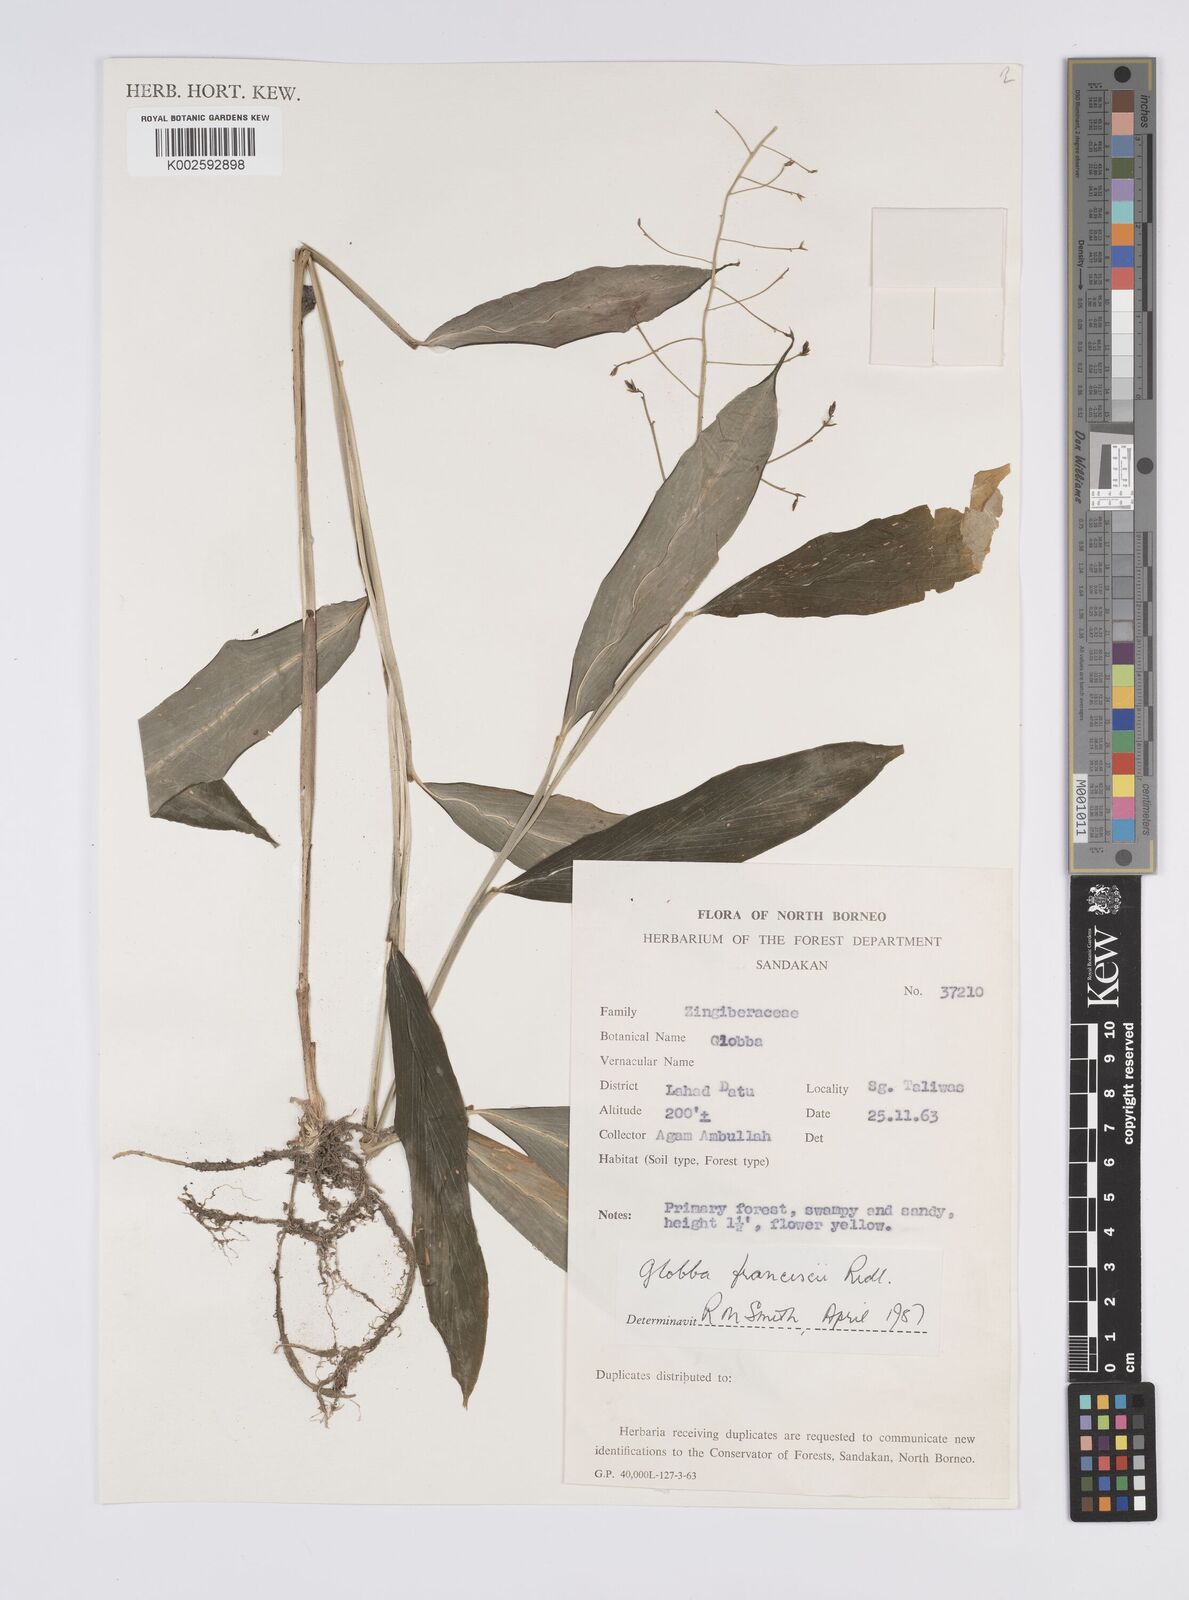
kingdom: Plantae
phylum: Tracheophyta
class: Liliopsida
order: Zingiberales
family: Zingiberaceae
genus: Globba
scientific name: Globba francisci
